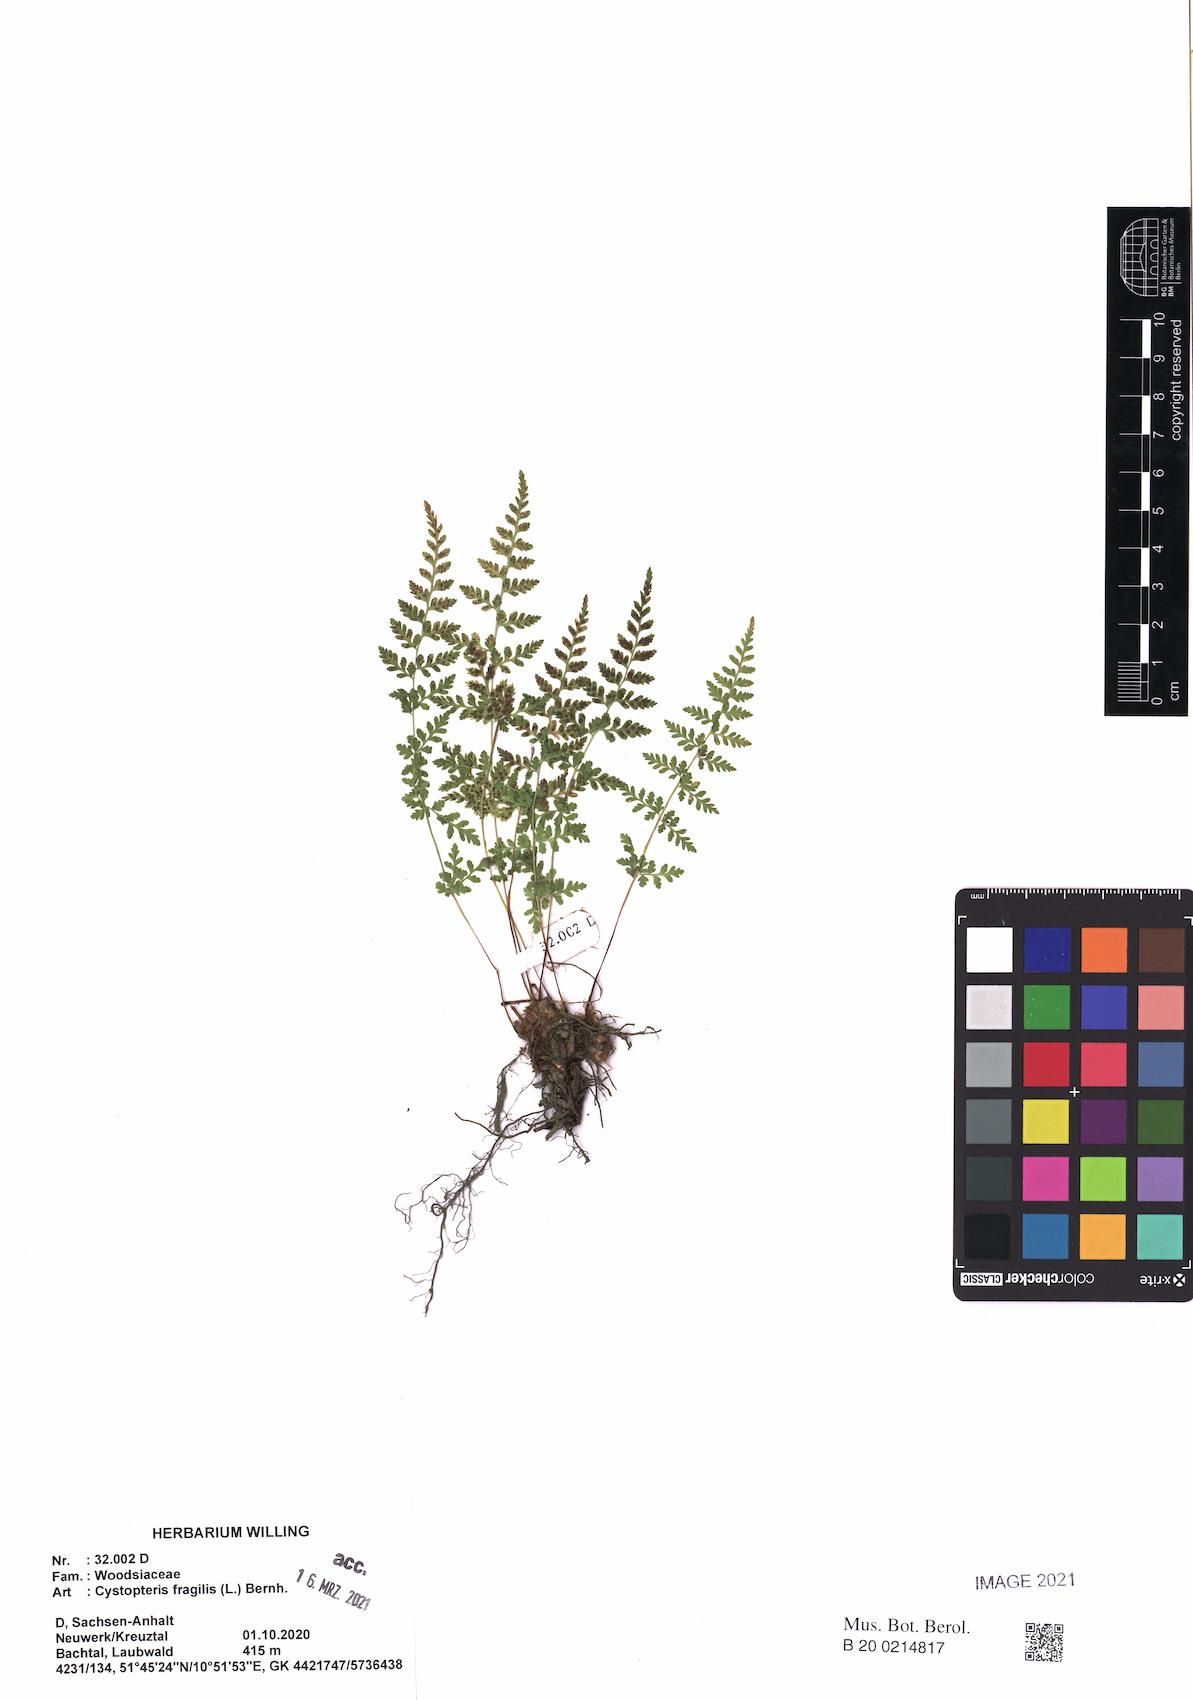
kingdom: Plantae
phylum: Tracheophyta
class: Polypodiopsida
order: Polypodiales
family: Cystopteridaceae
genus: Cystopteris
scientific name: Cystopteris fragilis
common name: Brittle bladder fern
